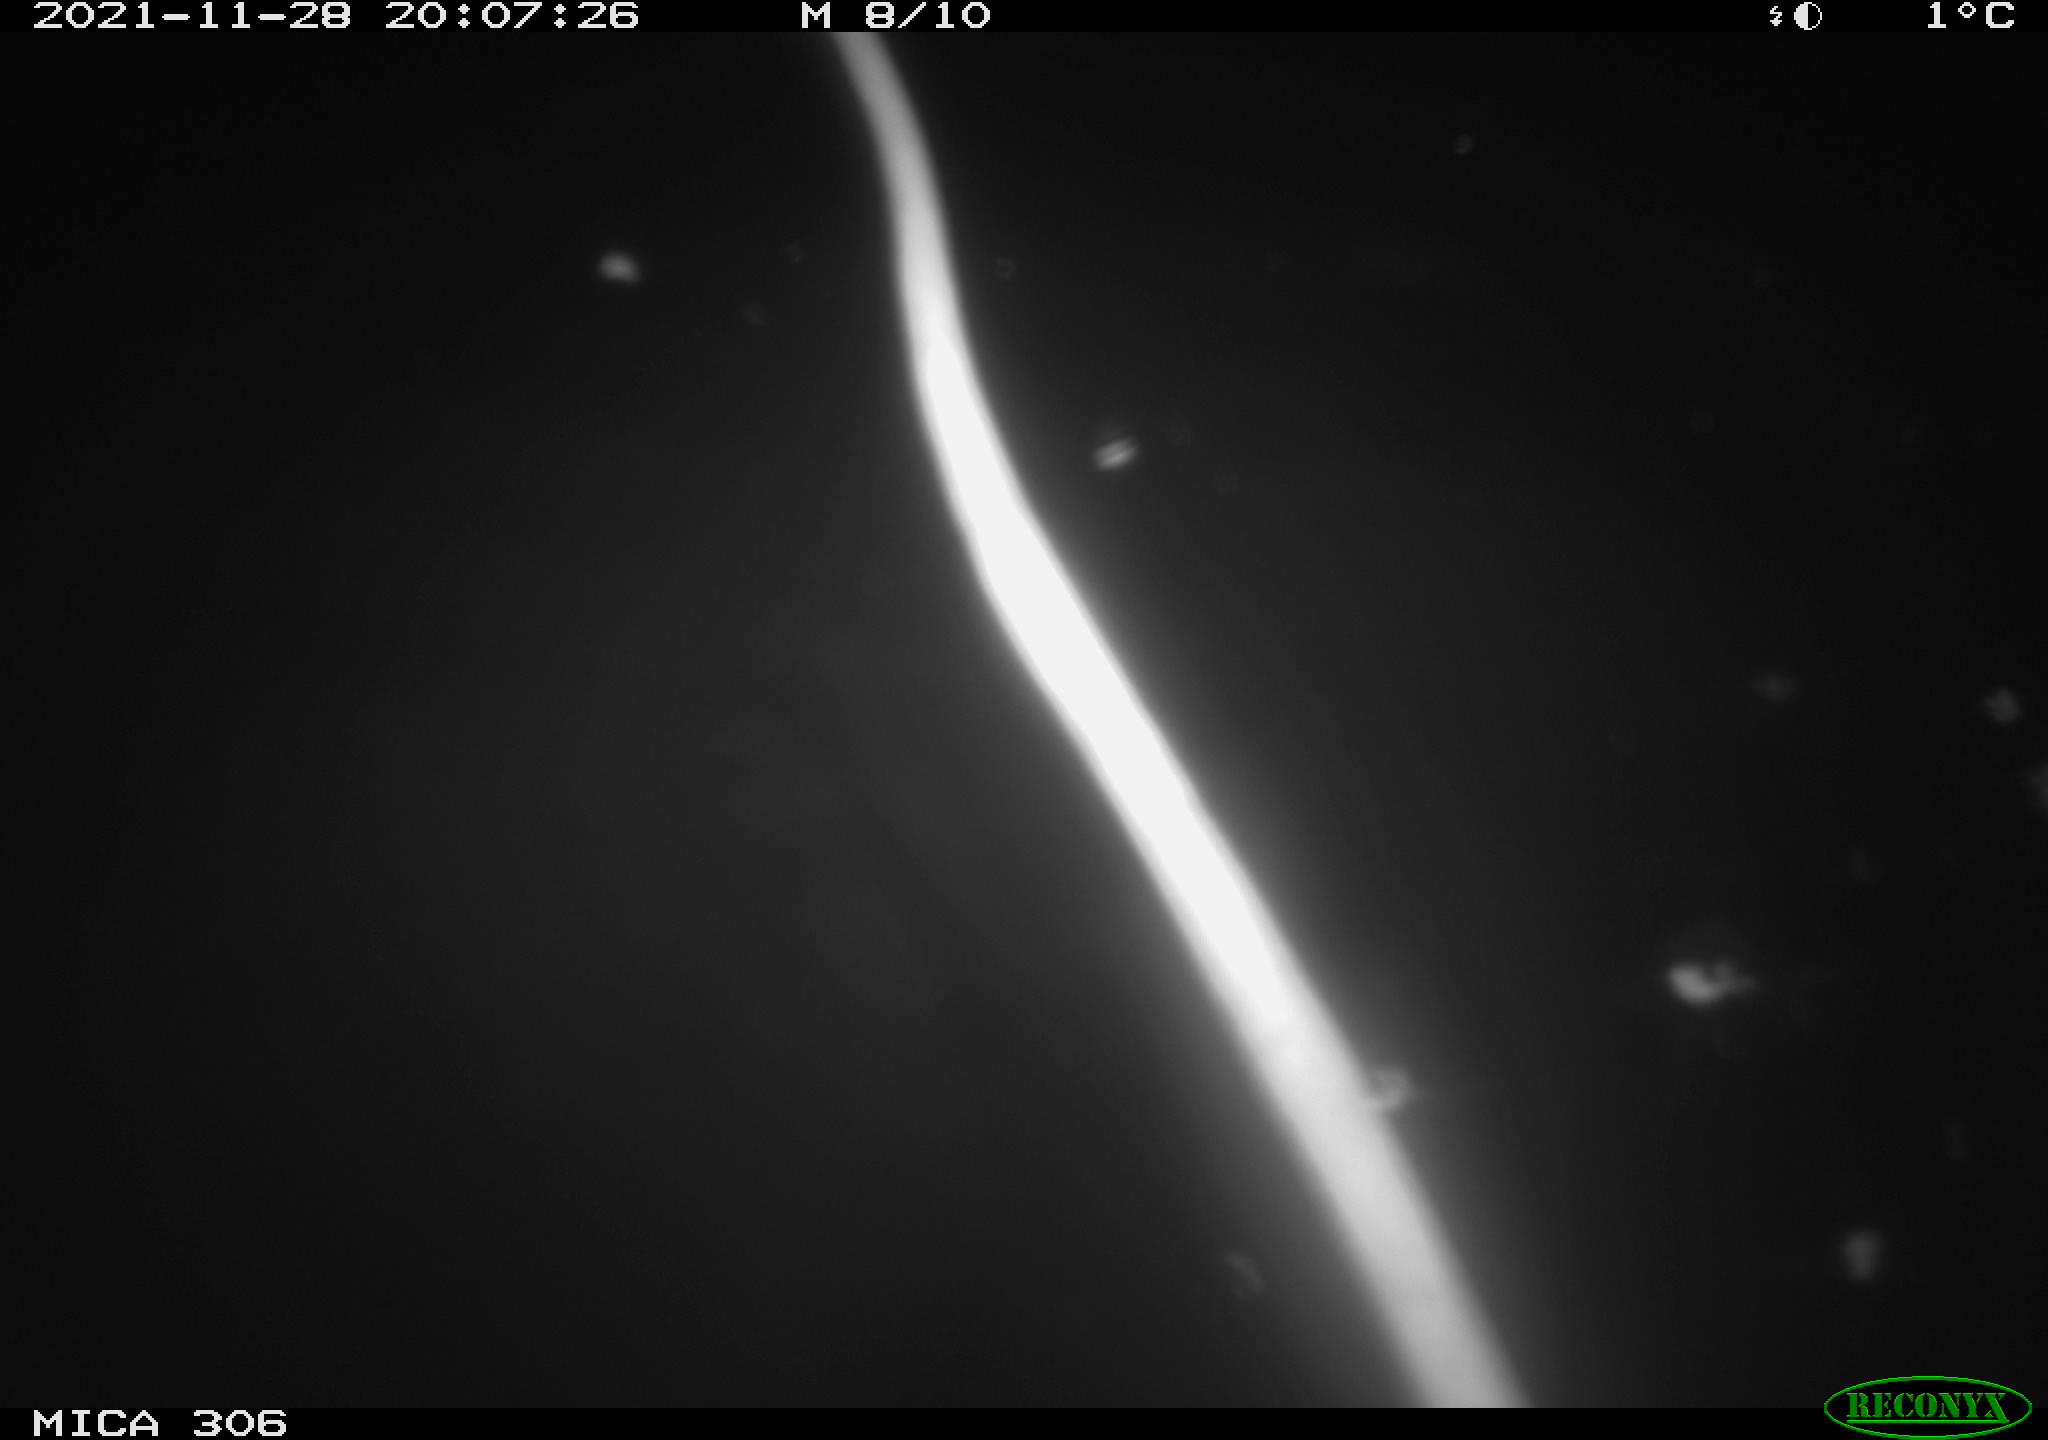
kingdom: Animalia
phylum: Chordata
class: Aves
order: Gruiformes
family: Rallidae
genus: Fulica
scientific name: Fulica atra
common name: Eurasian coot
